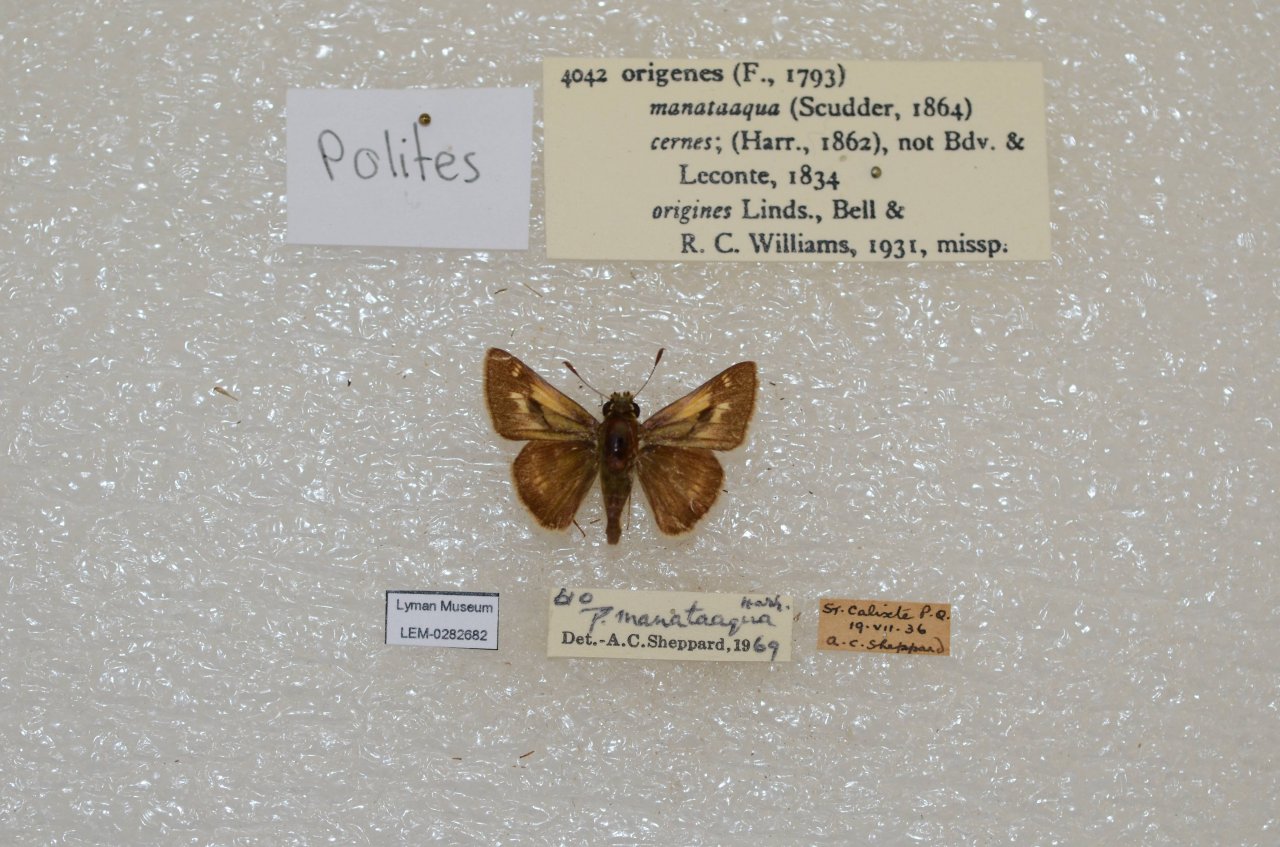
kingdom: Animalia
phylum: Arthropoda
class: Insecta
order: Lepidoptera
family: Hesperiidae
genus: Polites
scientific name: Polites
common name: Crossline Skipper
